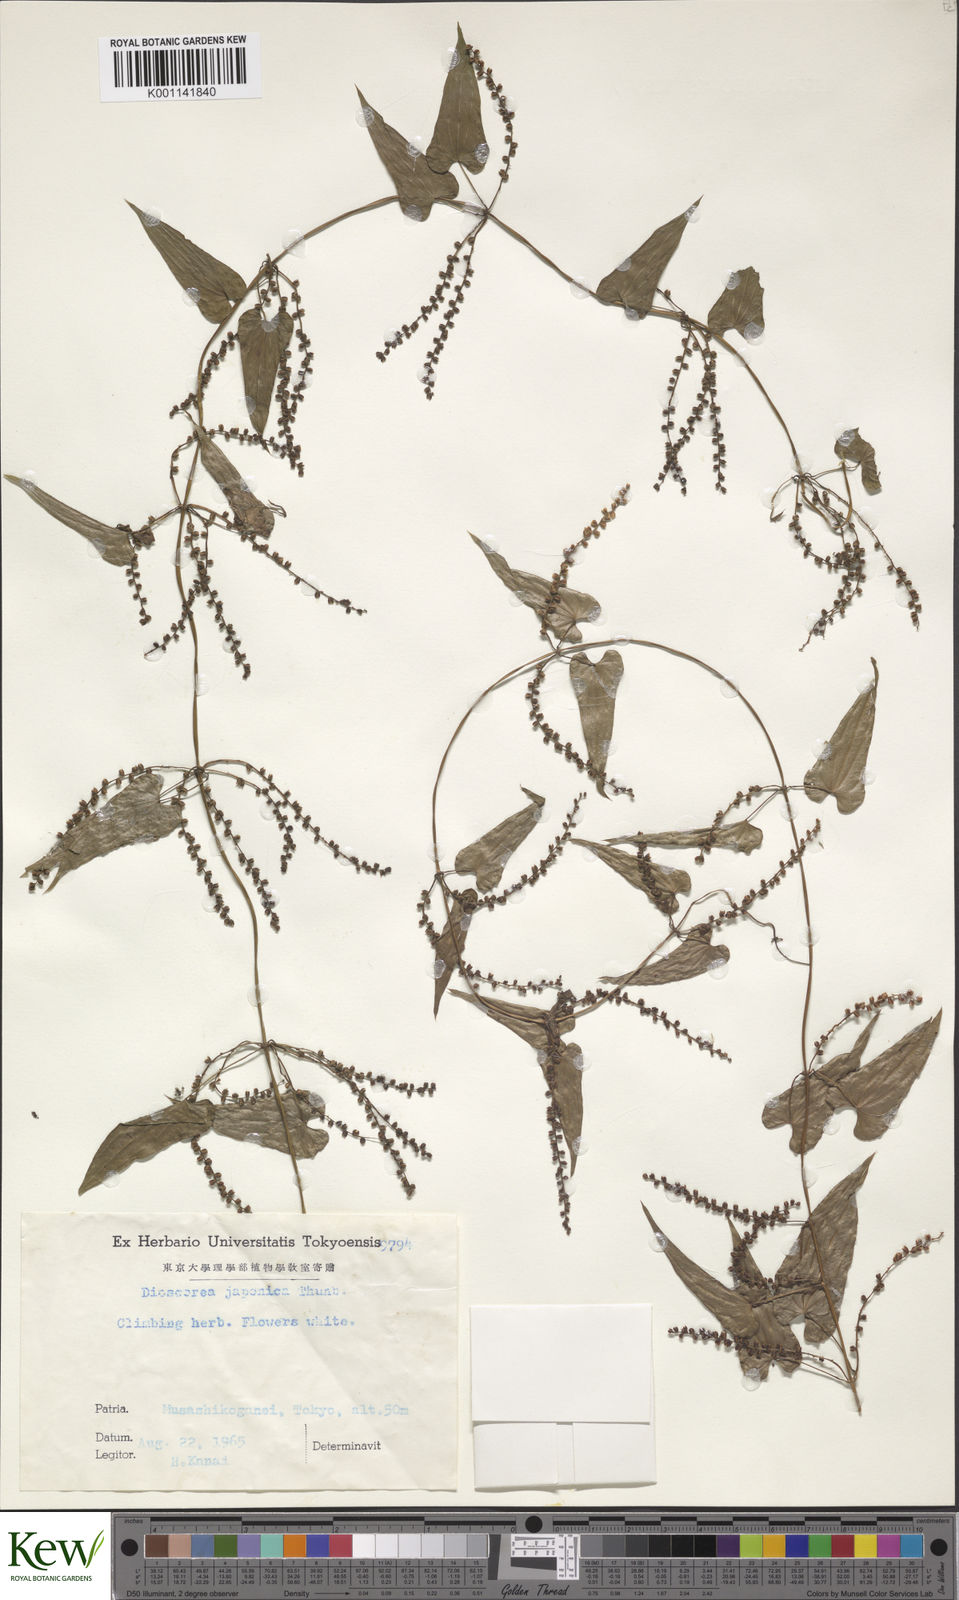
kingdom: Plantae
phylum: Tracheophyta
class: Liliopsida
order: Dioscoreales
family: Dioscoreaceae
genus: Dioscorea
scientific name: Dioscorea japonica
